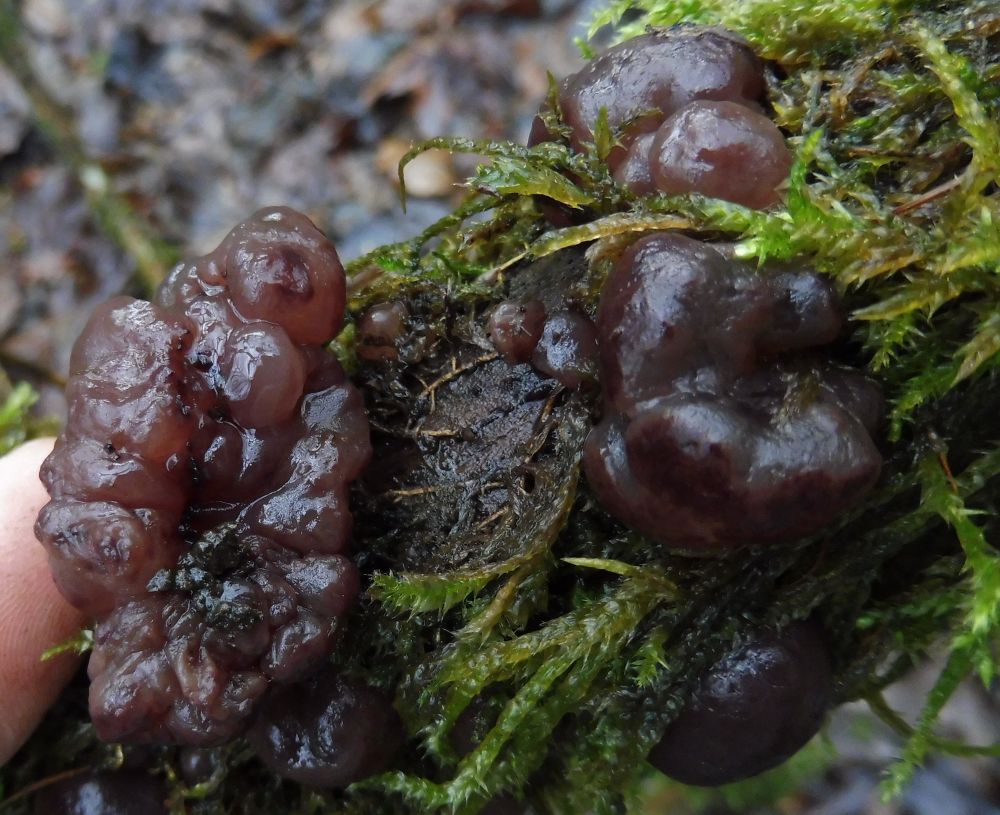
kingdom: Fungi
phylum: Ascomycota
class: Leotiomycetes
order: Helotiales
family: Gelatinodiscaceae
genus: Ascotremella
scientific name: Ascotremella faginea
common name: hjerne-bævreskive
